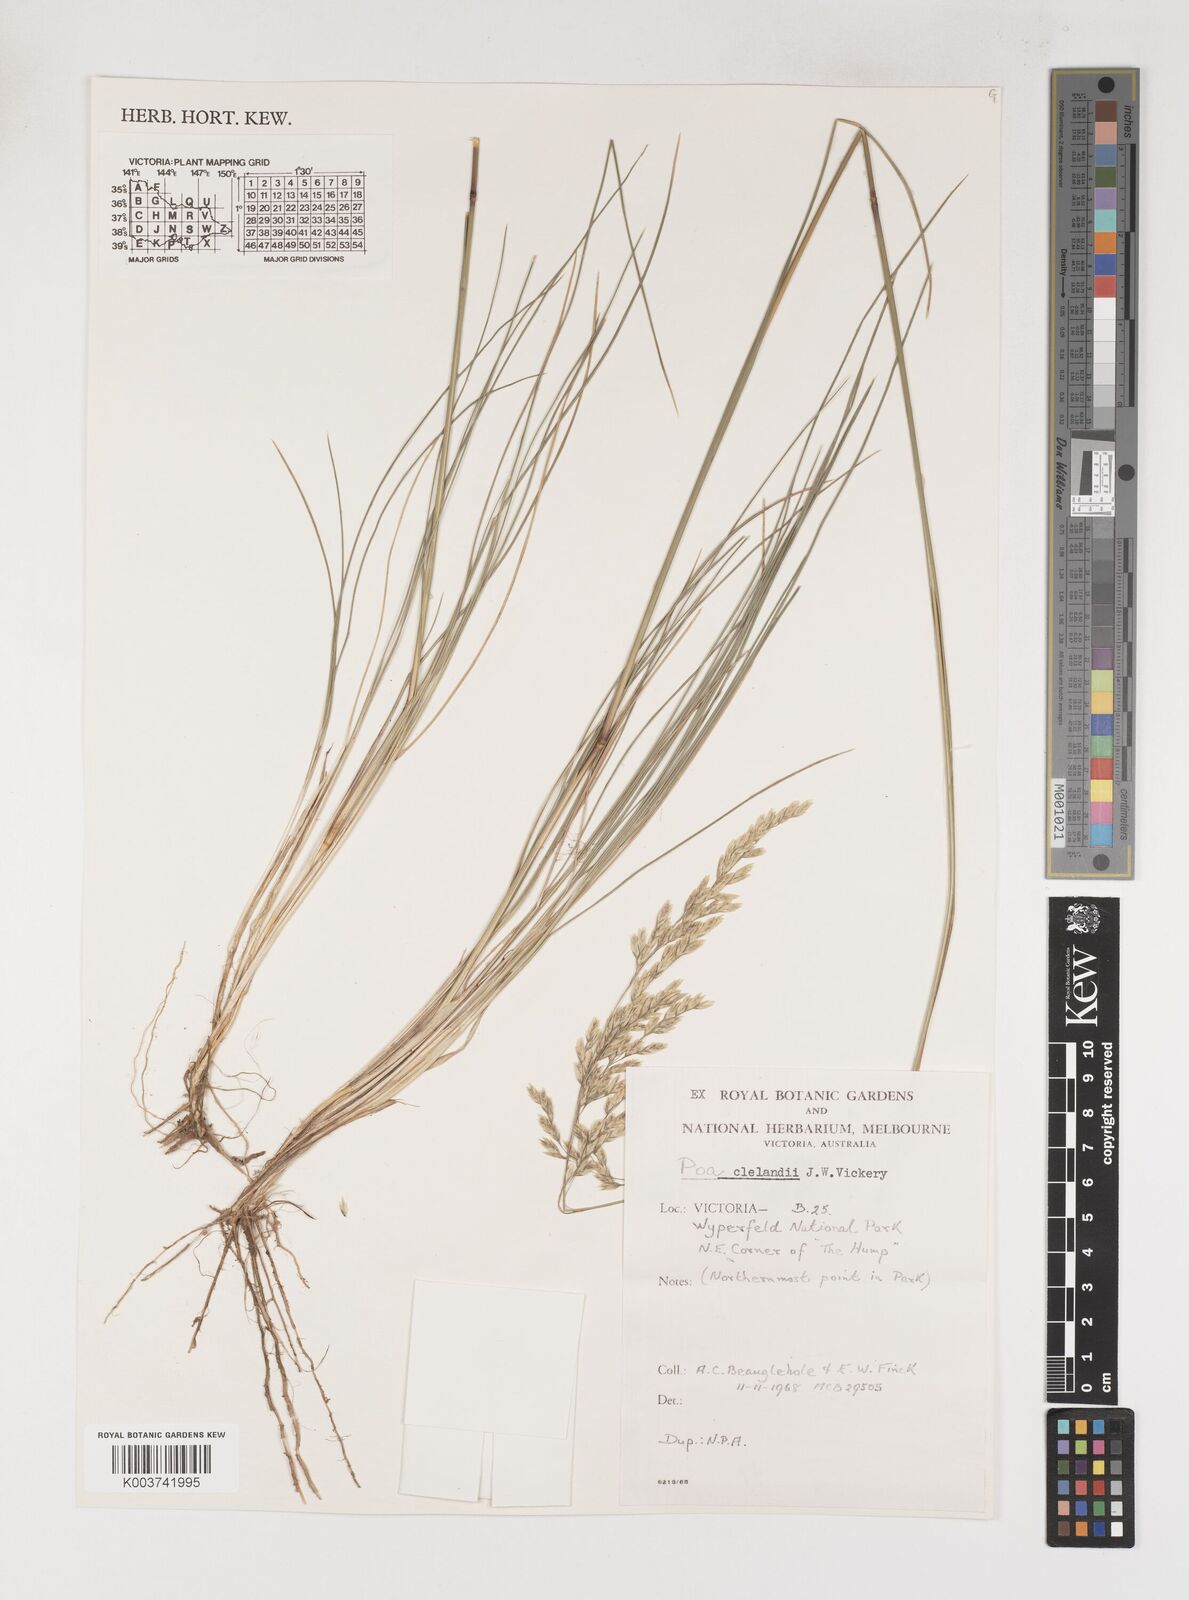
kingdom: Plantae
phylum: Tracheophyta
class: Liliopsida
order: Poales
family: Poaceae
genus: Poa
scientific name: Poa clelandii
